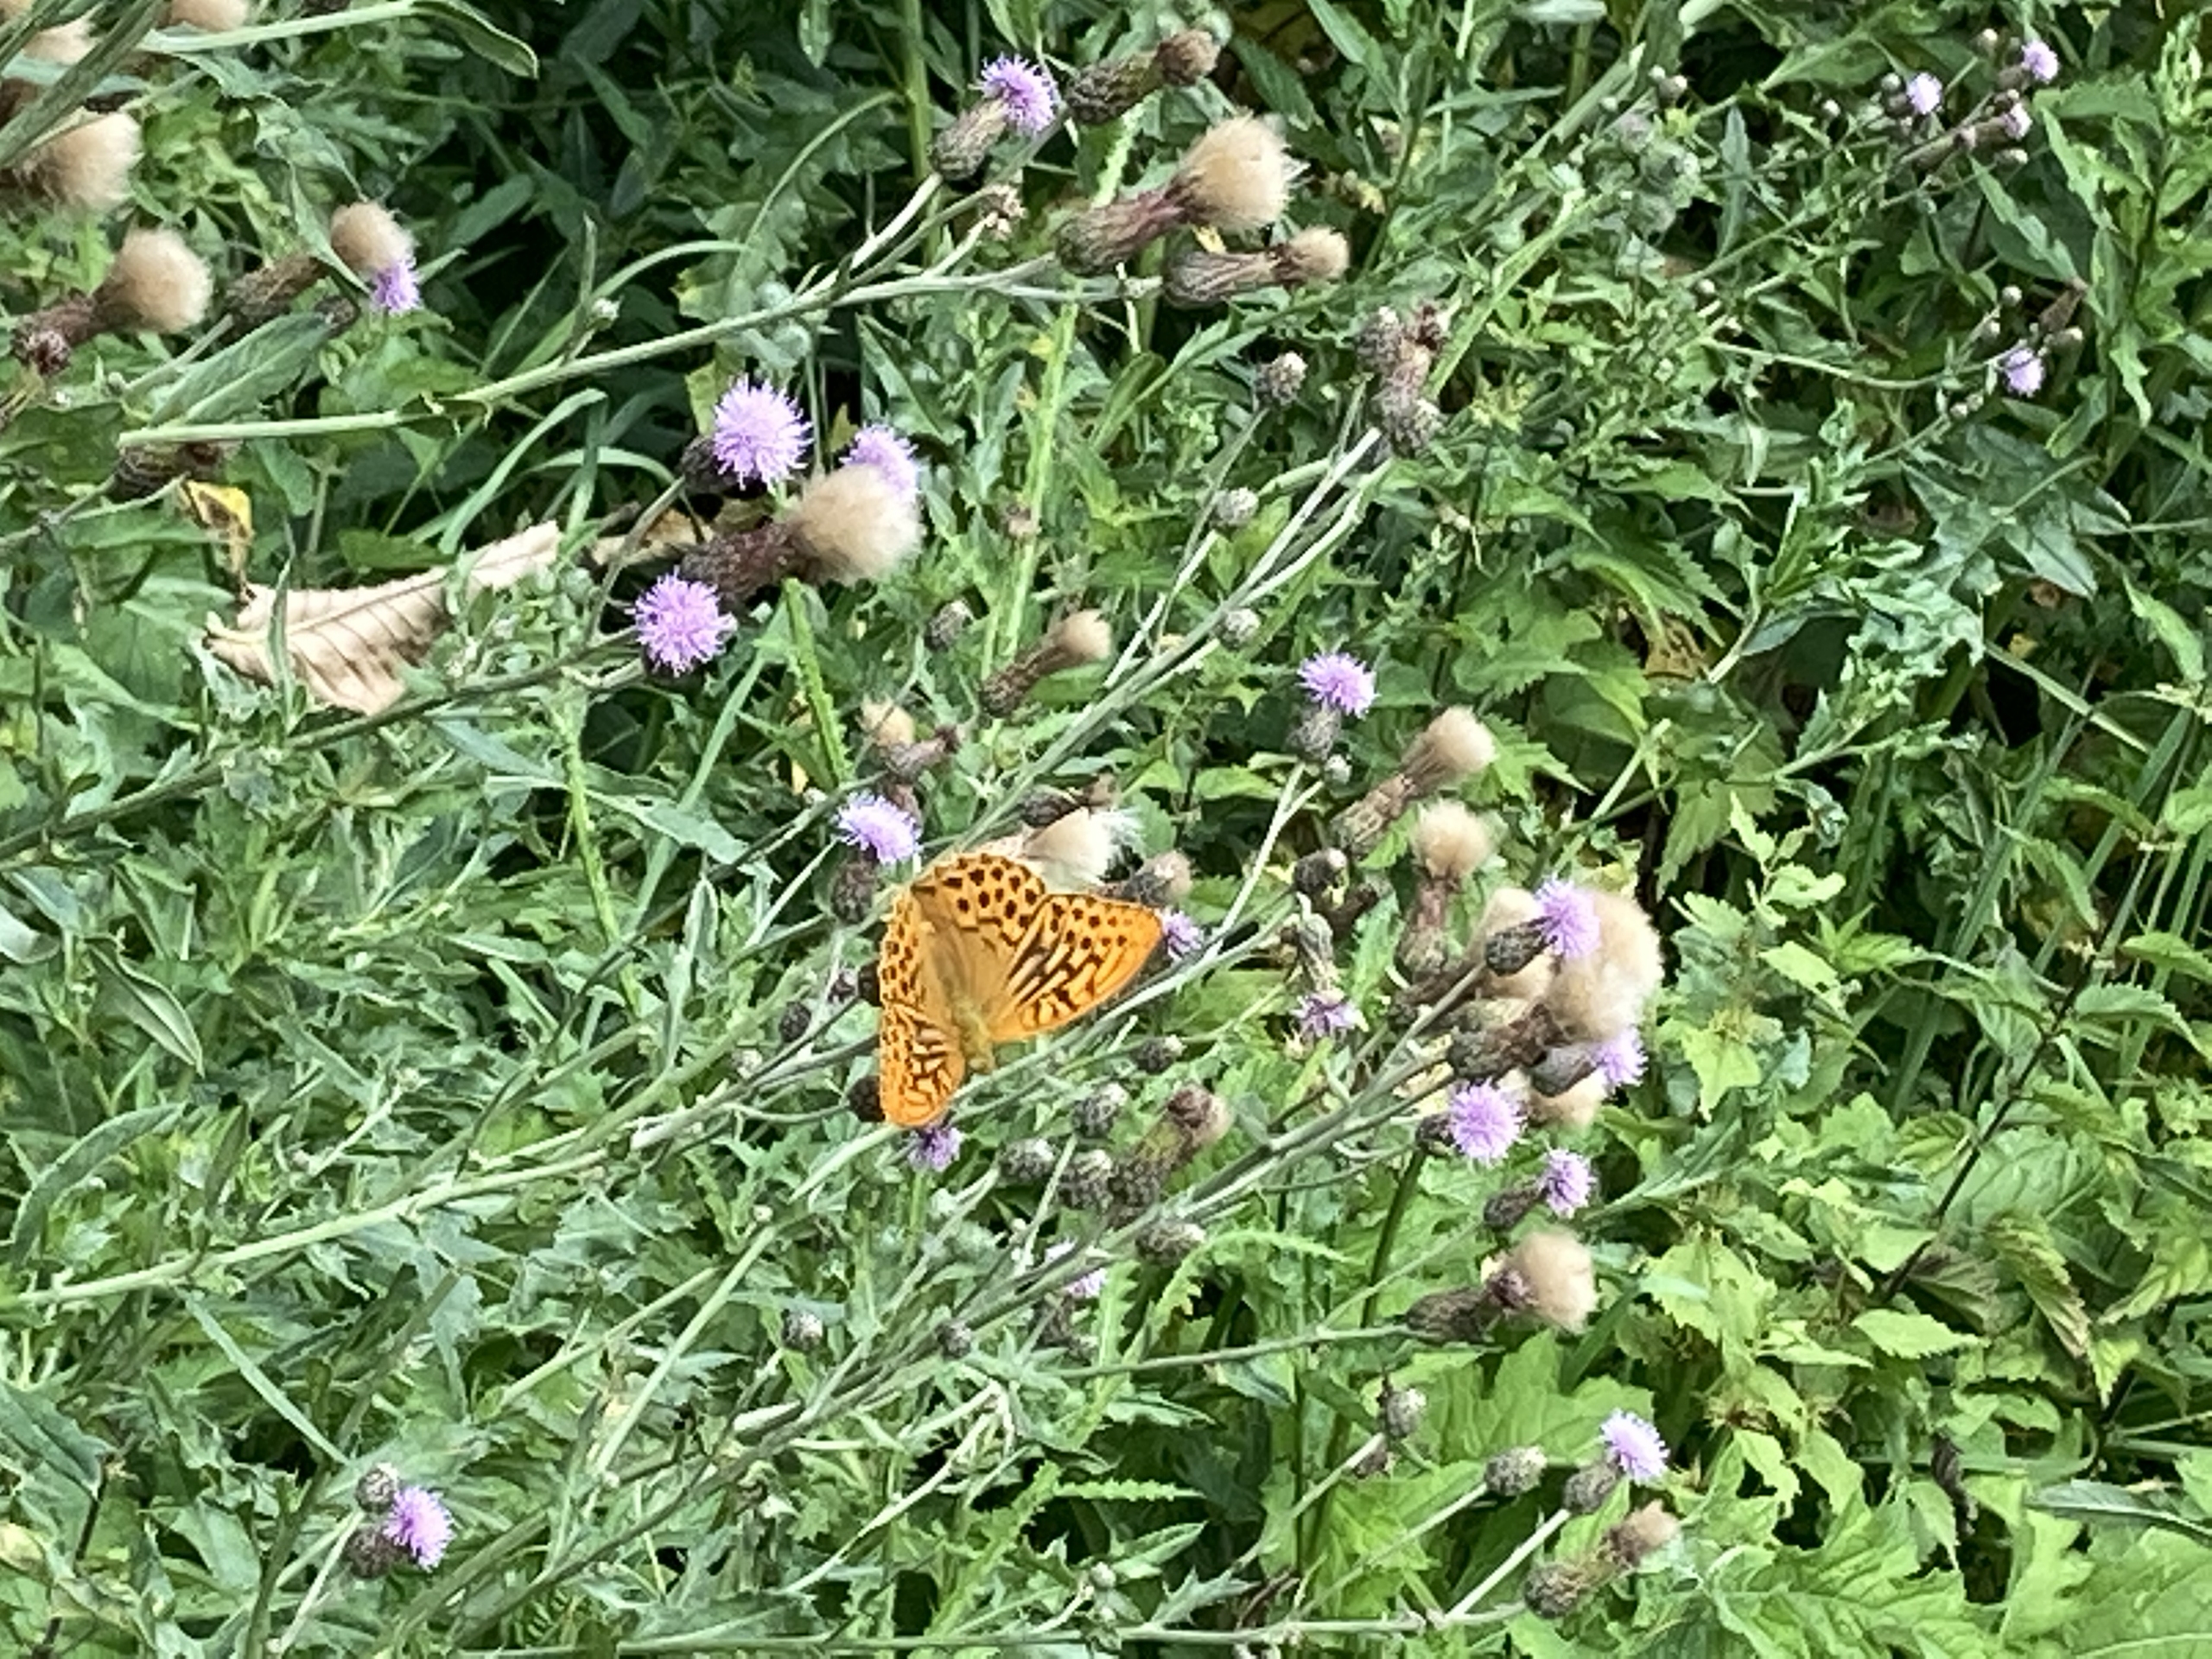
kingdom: Animalia
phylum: Arthropoda
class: Insecta
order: Lepidoptera
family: Nymphalidae
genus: Argynnis
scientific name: Argynnis paphia
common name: Kejserkåbe
